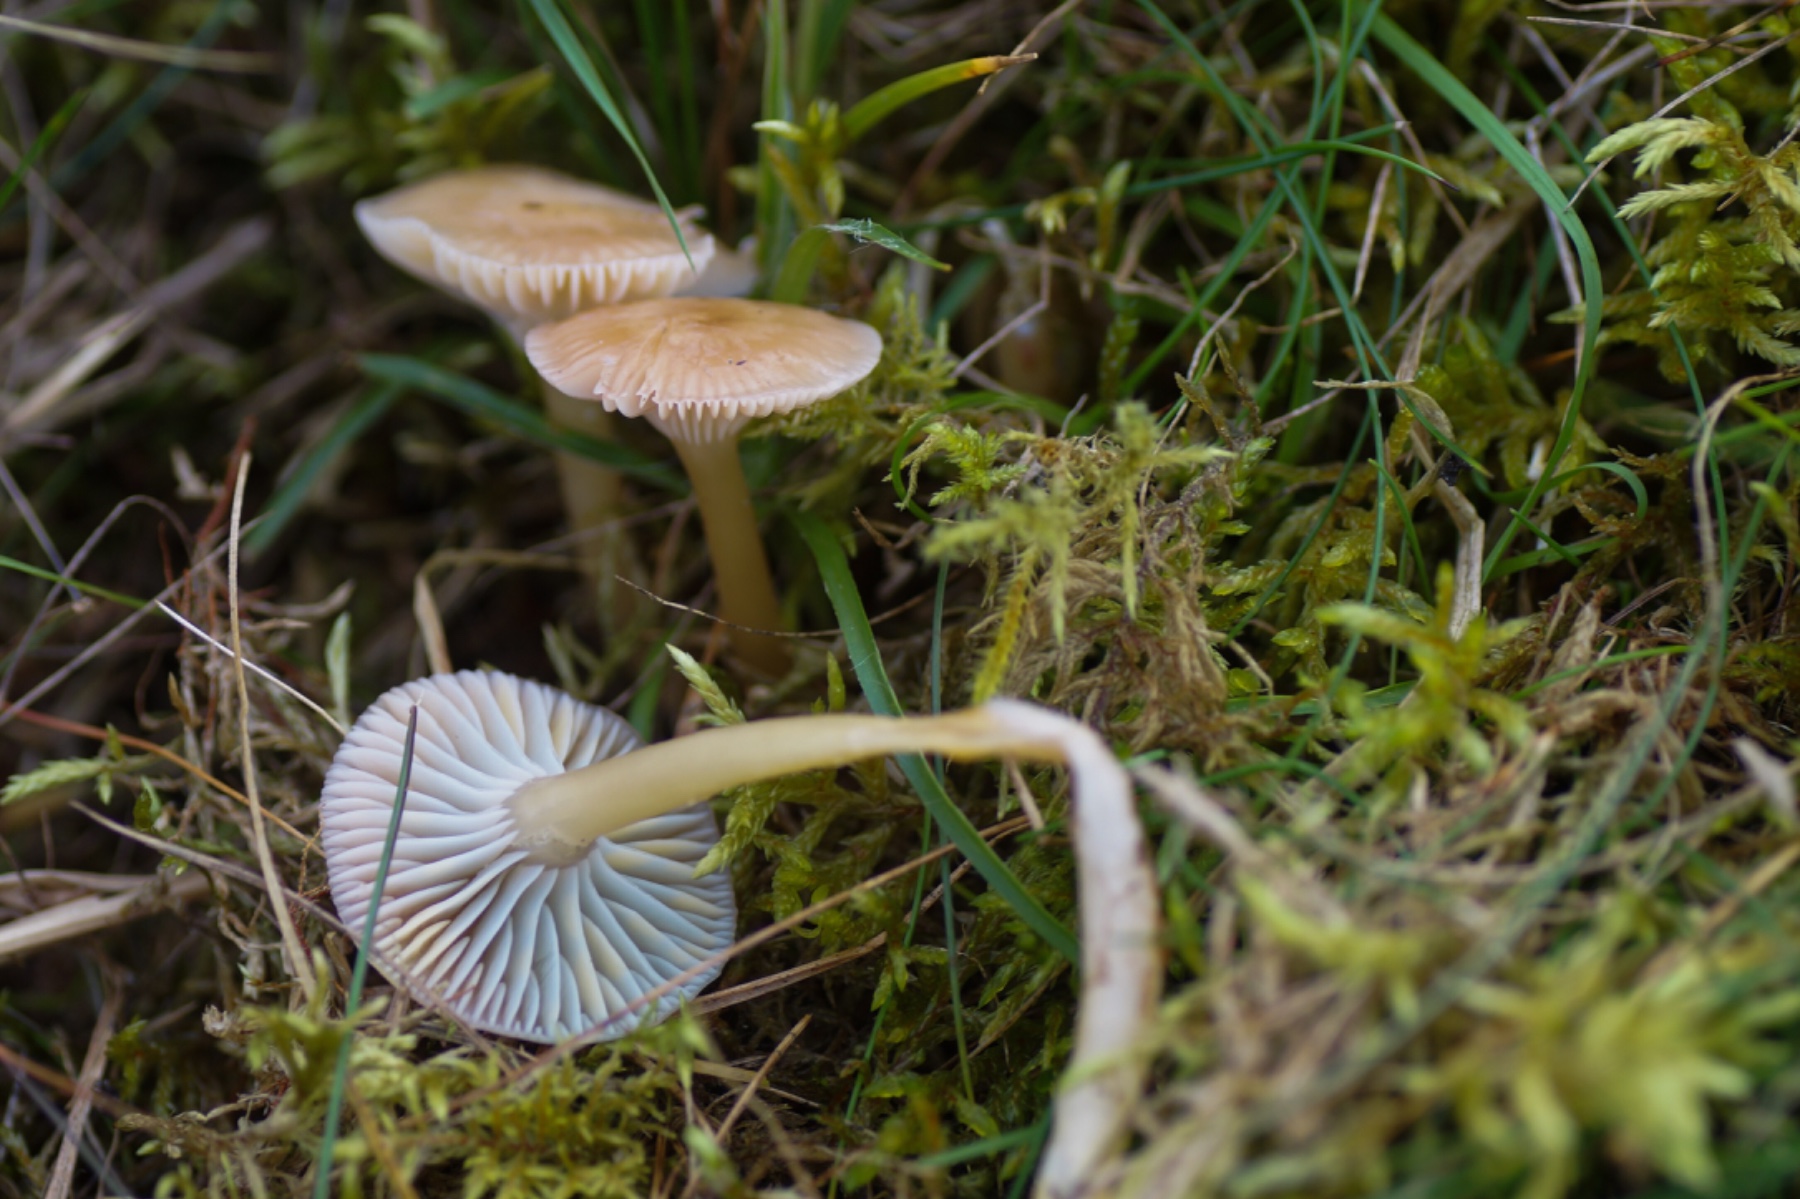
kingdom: Fungi
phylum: Basidiomycota
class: Agaricomycetes
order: Agaricales
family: Hygrophoraceae
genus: Gliophorus
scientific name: Gliophorus laetus
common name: brusk-vokshat
